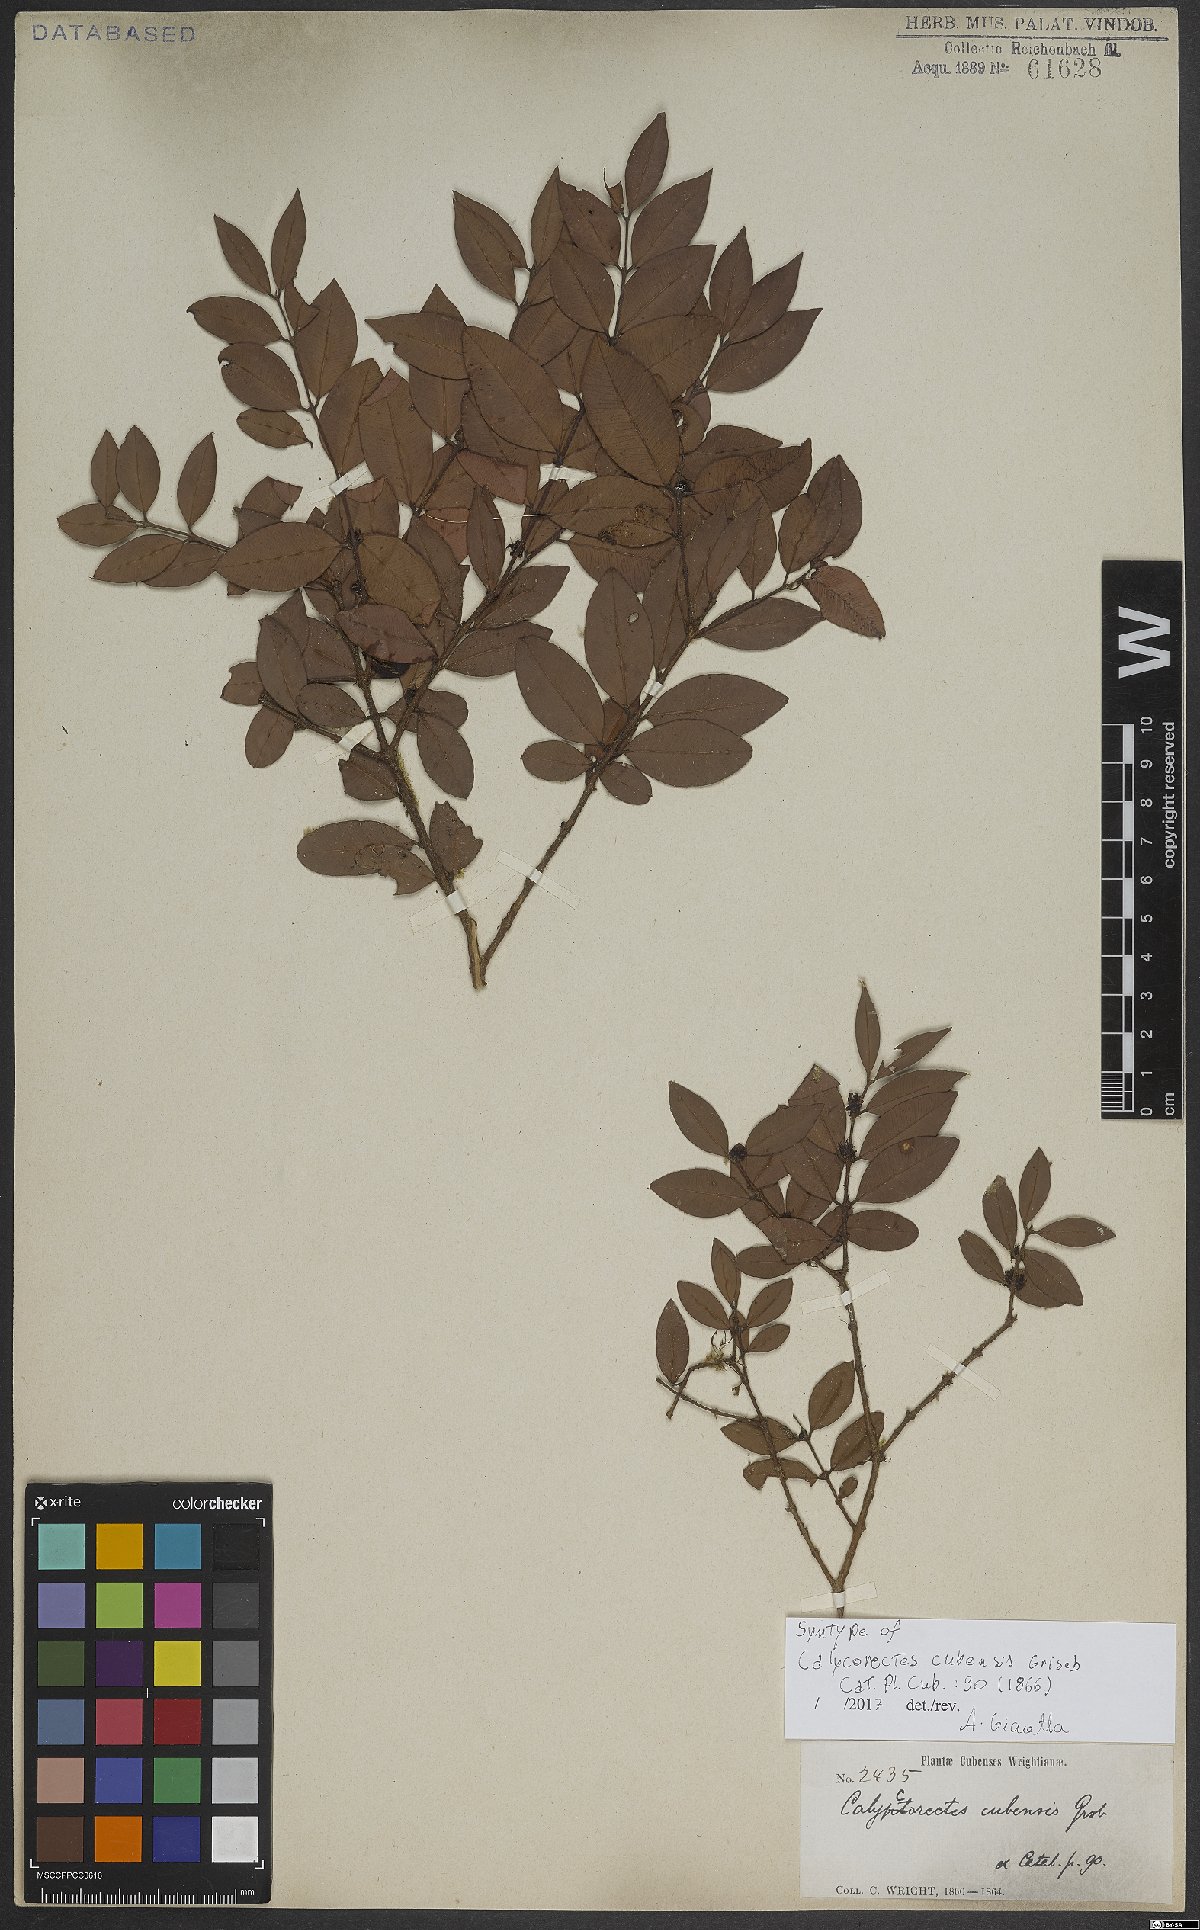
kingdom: Plantae
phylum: Tracheophyta
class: Magnoliopsida
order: Myrtales
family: Myrtaceae
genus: Myrciaria
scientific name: Myrciaria floribunda
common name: Guavaberry
